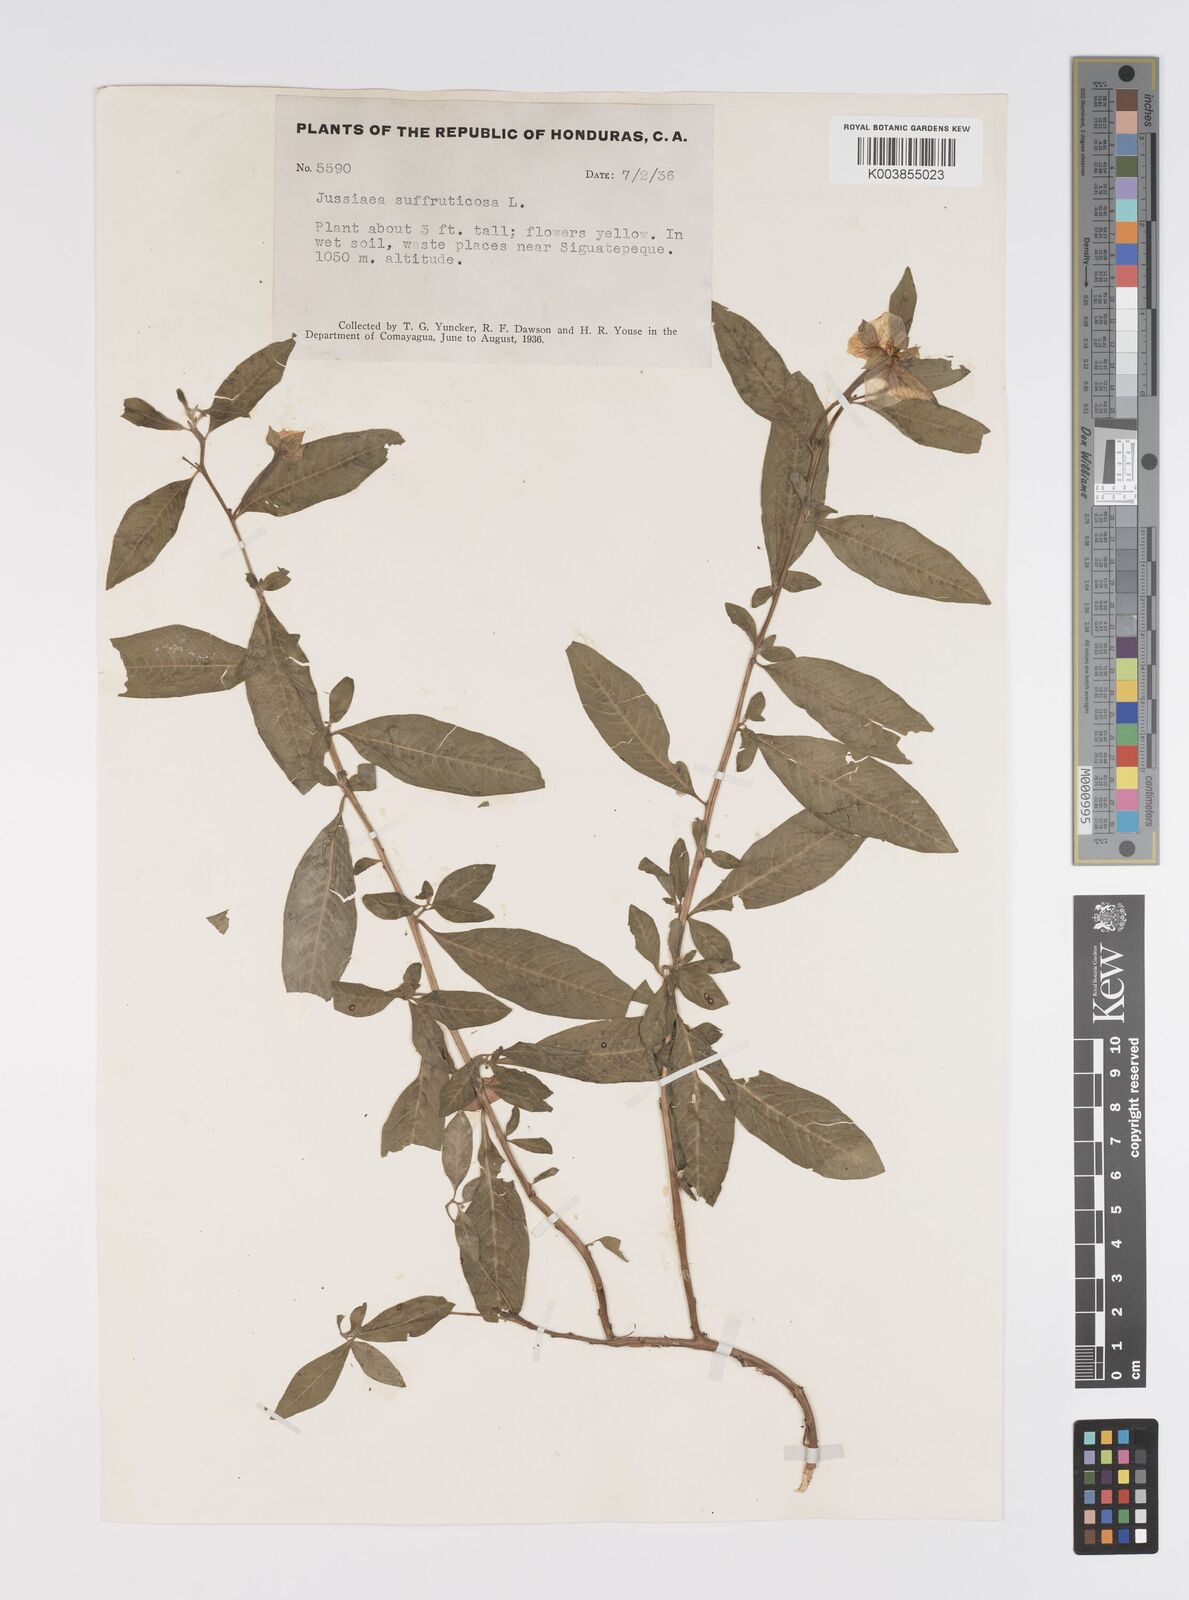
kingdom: Plantae
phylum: Tracheophyta
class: Magnoliopsida
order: Myrtales
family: Onagraceae
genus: Ludwigia
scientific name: Ludwigia octovalvis
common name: Water-primrose
